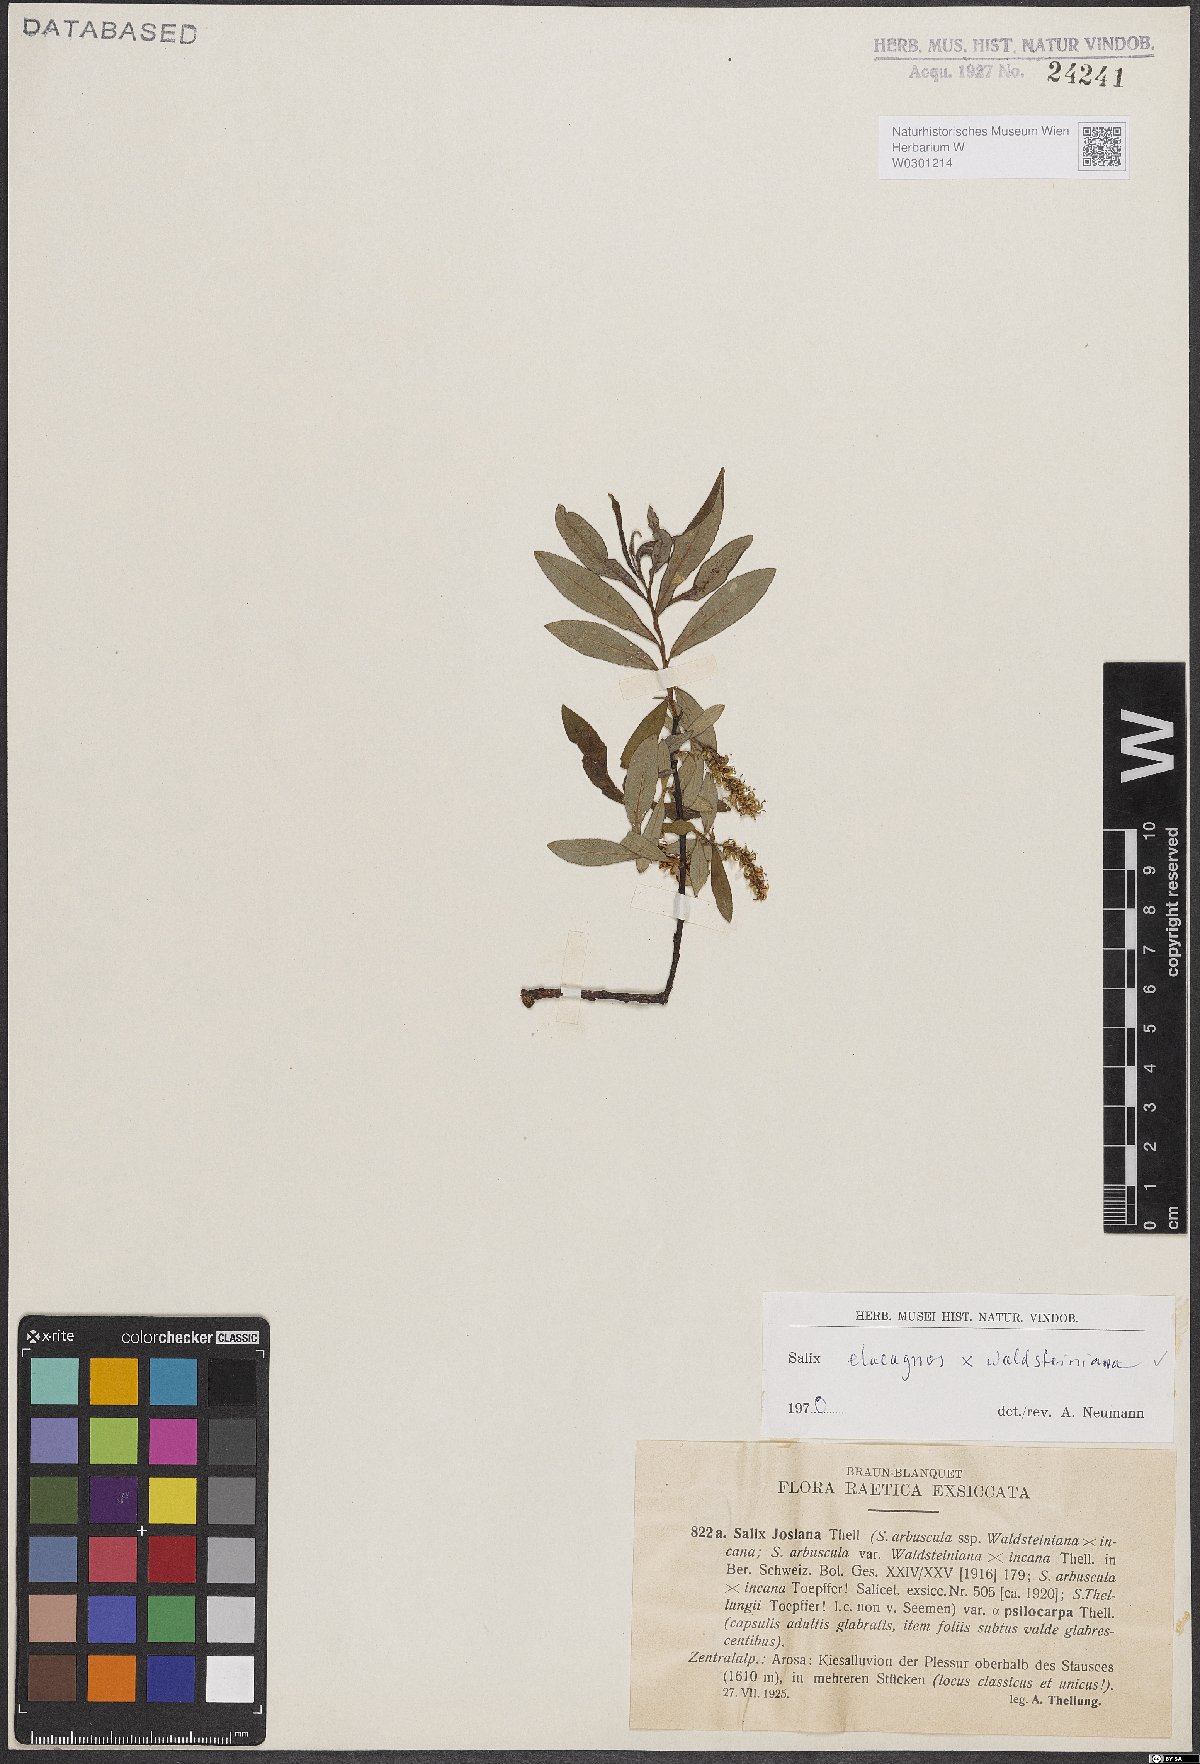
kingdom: Plantae
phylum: Tracheophyta
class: Magnoliopsida
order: Malpighiales
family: Salicaceae
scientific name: Salicaceae
